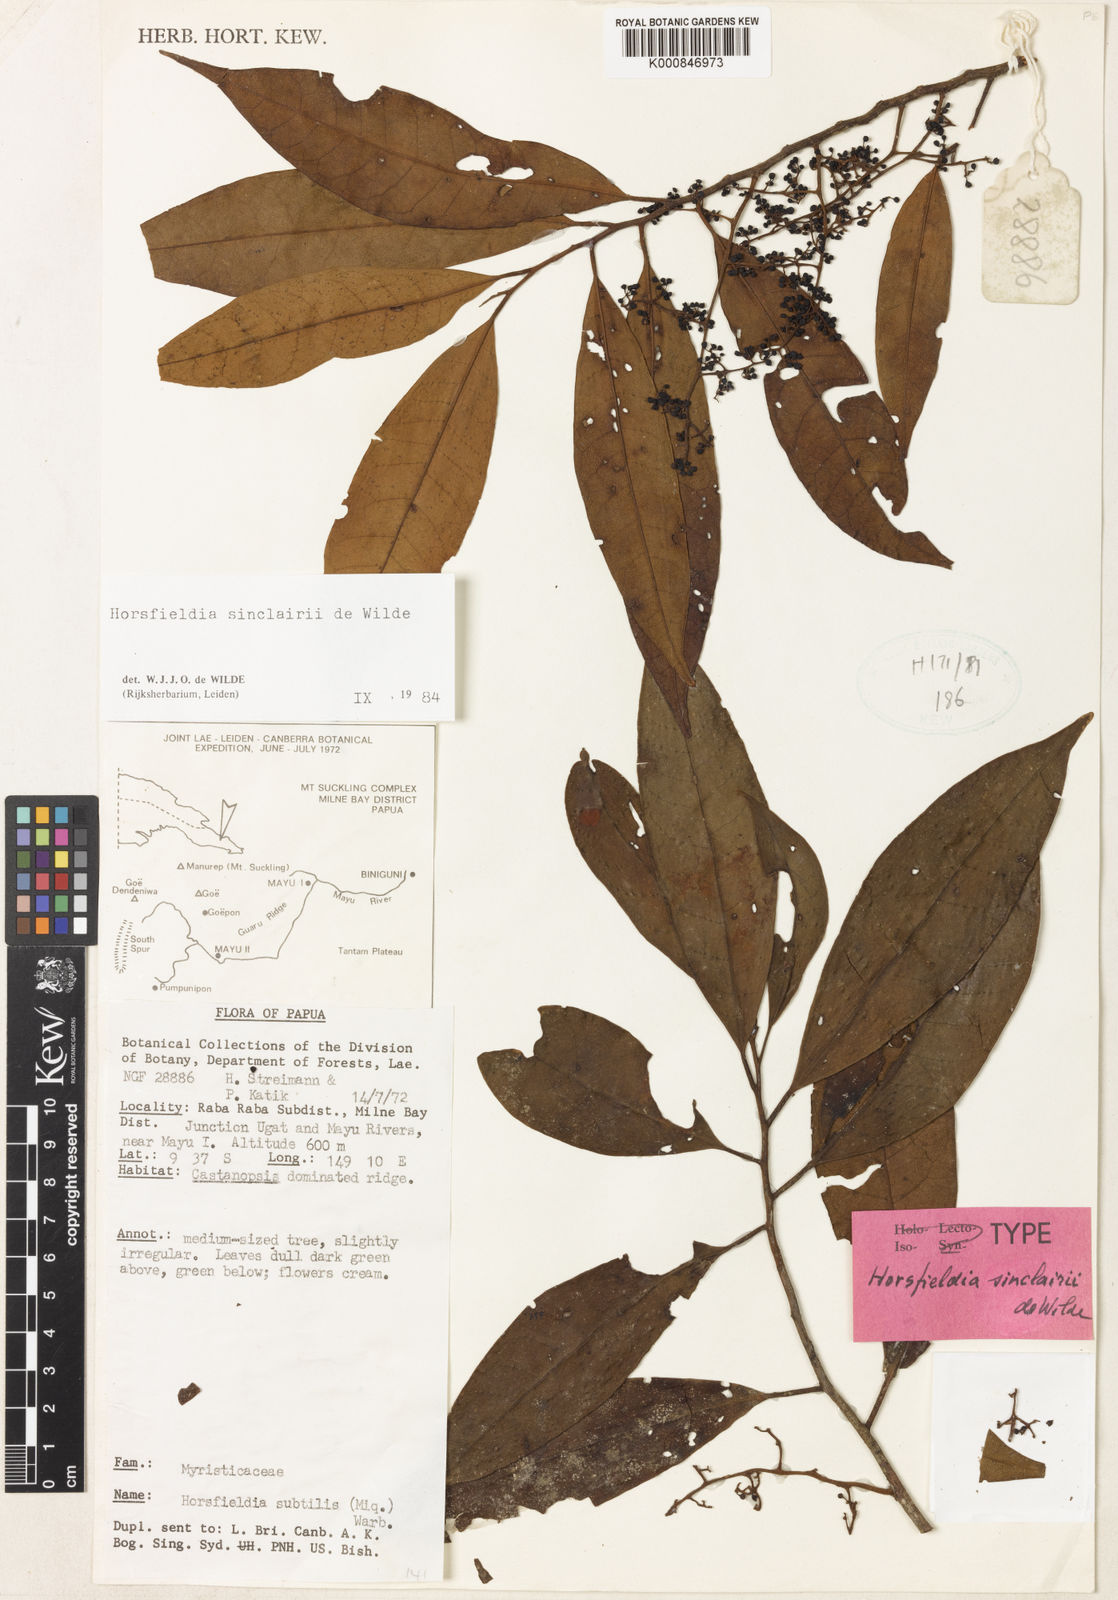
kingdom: Plantae
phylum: Tracheophyta
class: Magnoliopsida
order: Magnoliales
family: Myristicaceae
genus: Horsfieldia
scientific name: Horsfieldia sinclairii
